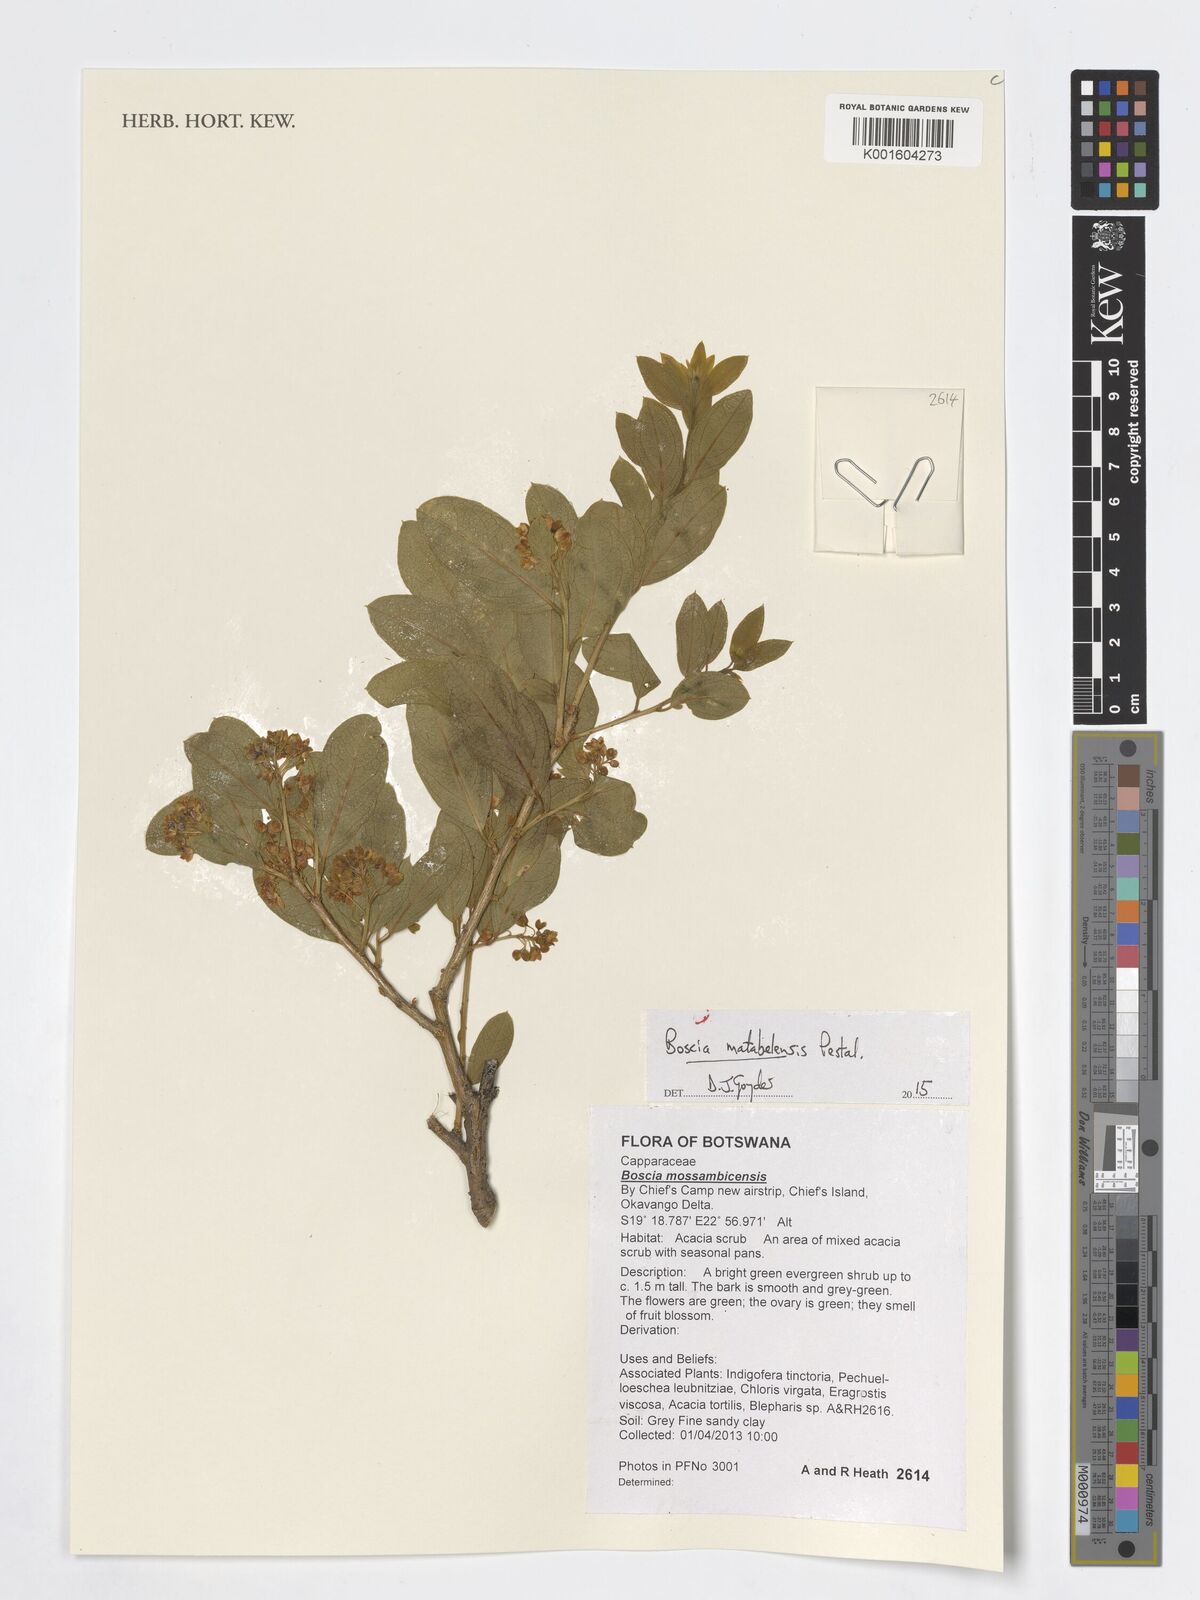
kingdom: Plantae
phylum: Tracheophyta
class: Magnoliopsida
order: Brassicales
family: Capparaceae
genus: Boscia
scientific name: Boscia matabelensis
